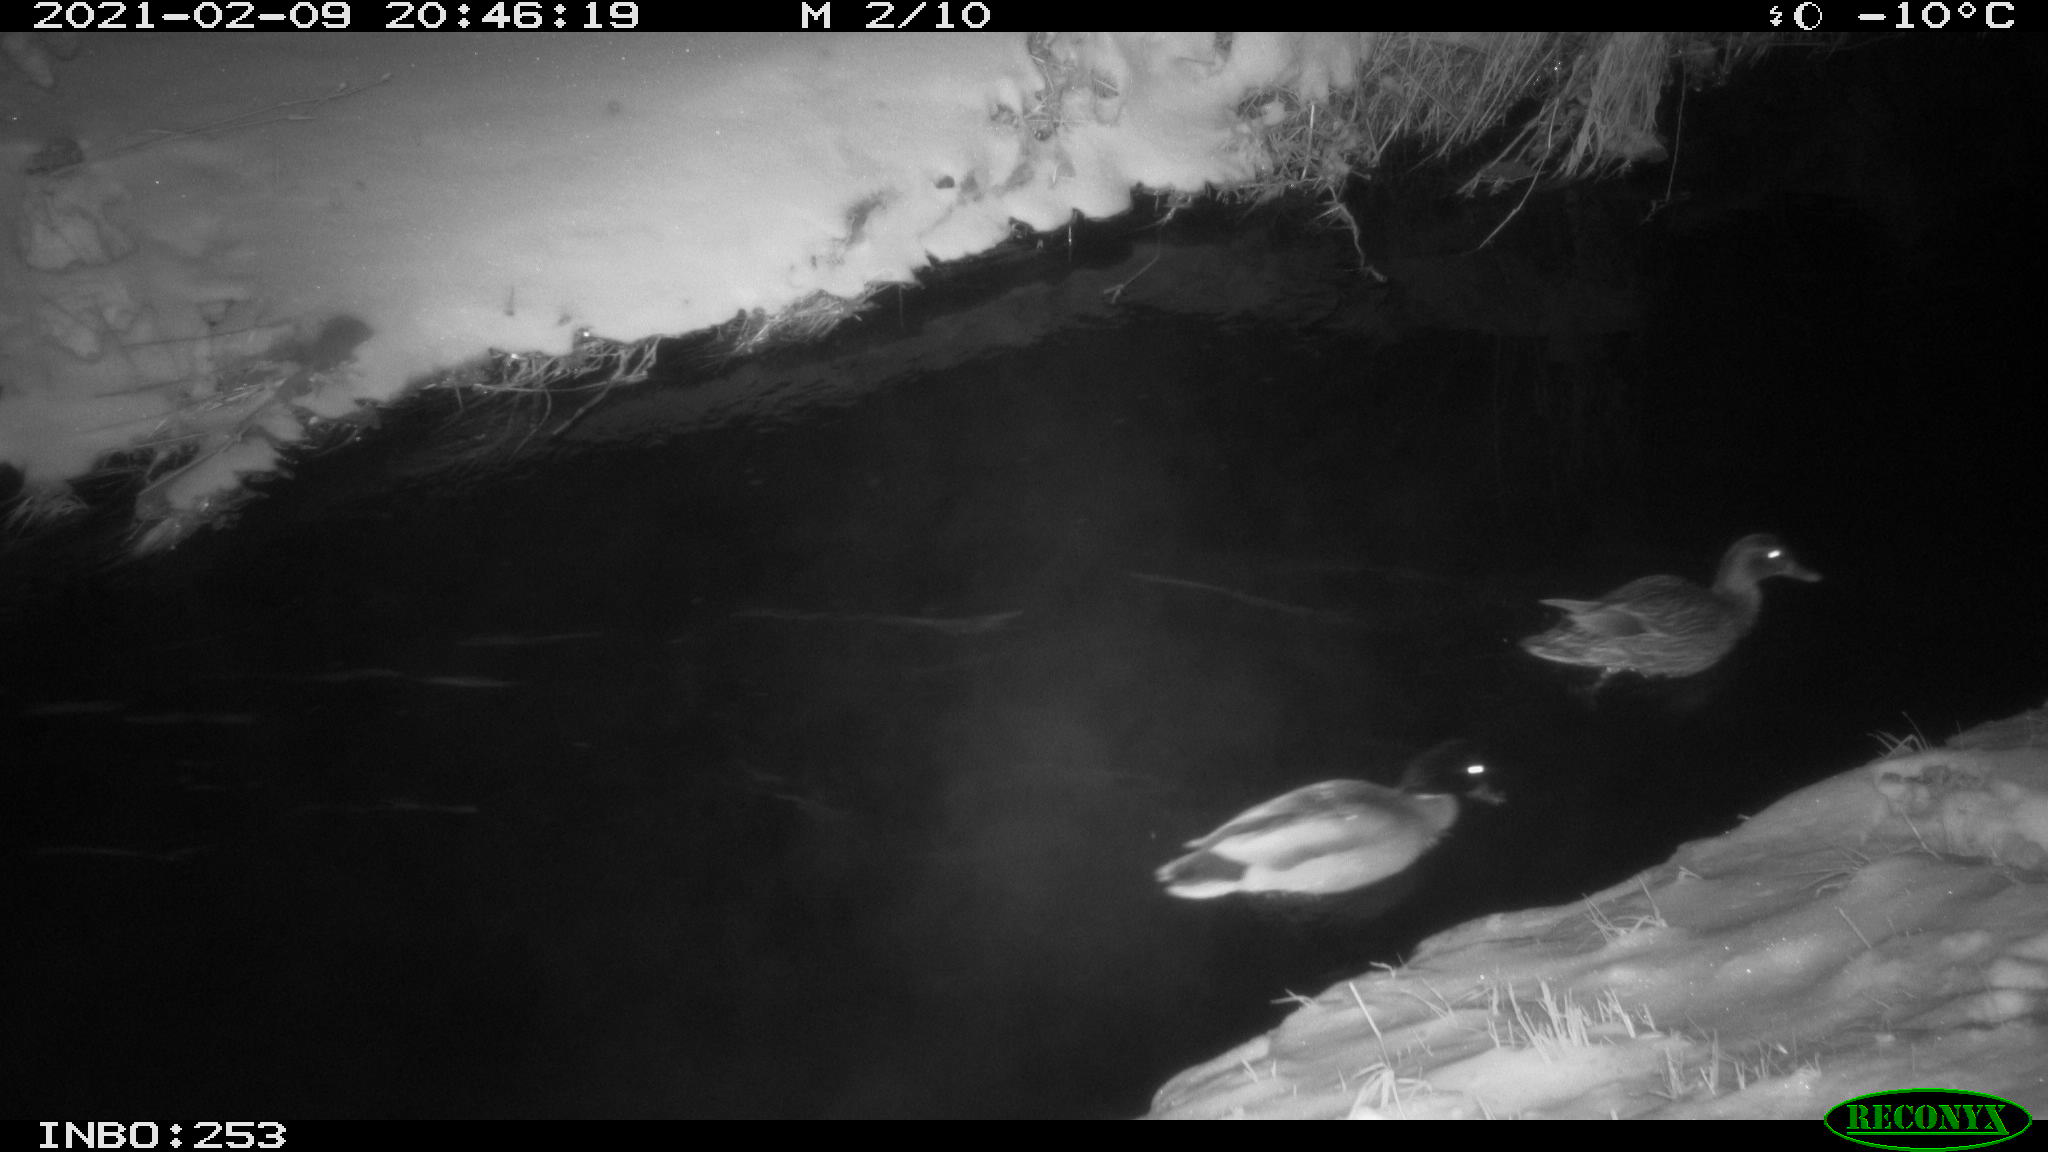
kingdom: Animalia
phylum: Chordata
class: Aves
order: Gruiformes
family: Rallidae
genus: Gallinula
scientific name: Gallinula chloropus
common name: Common moorhen
